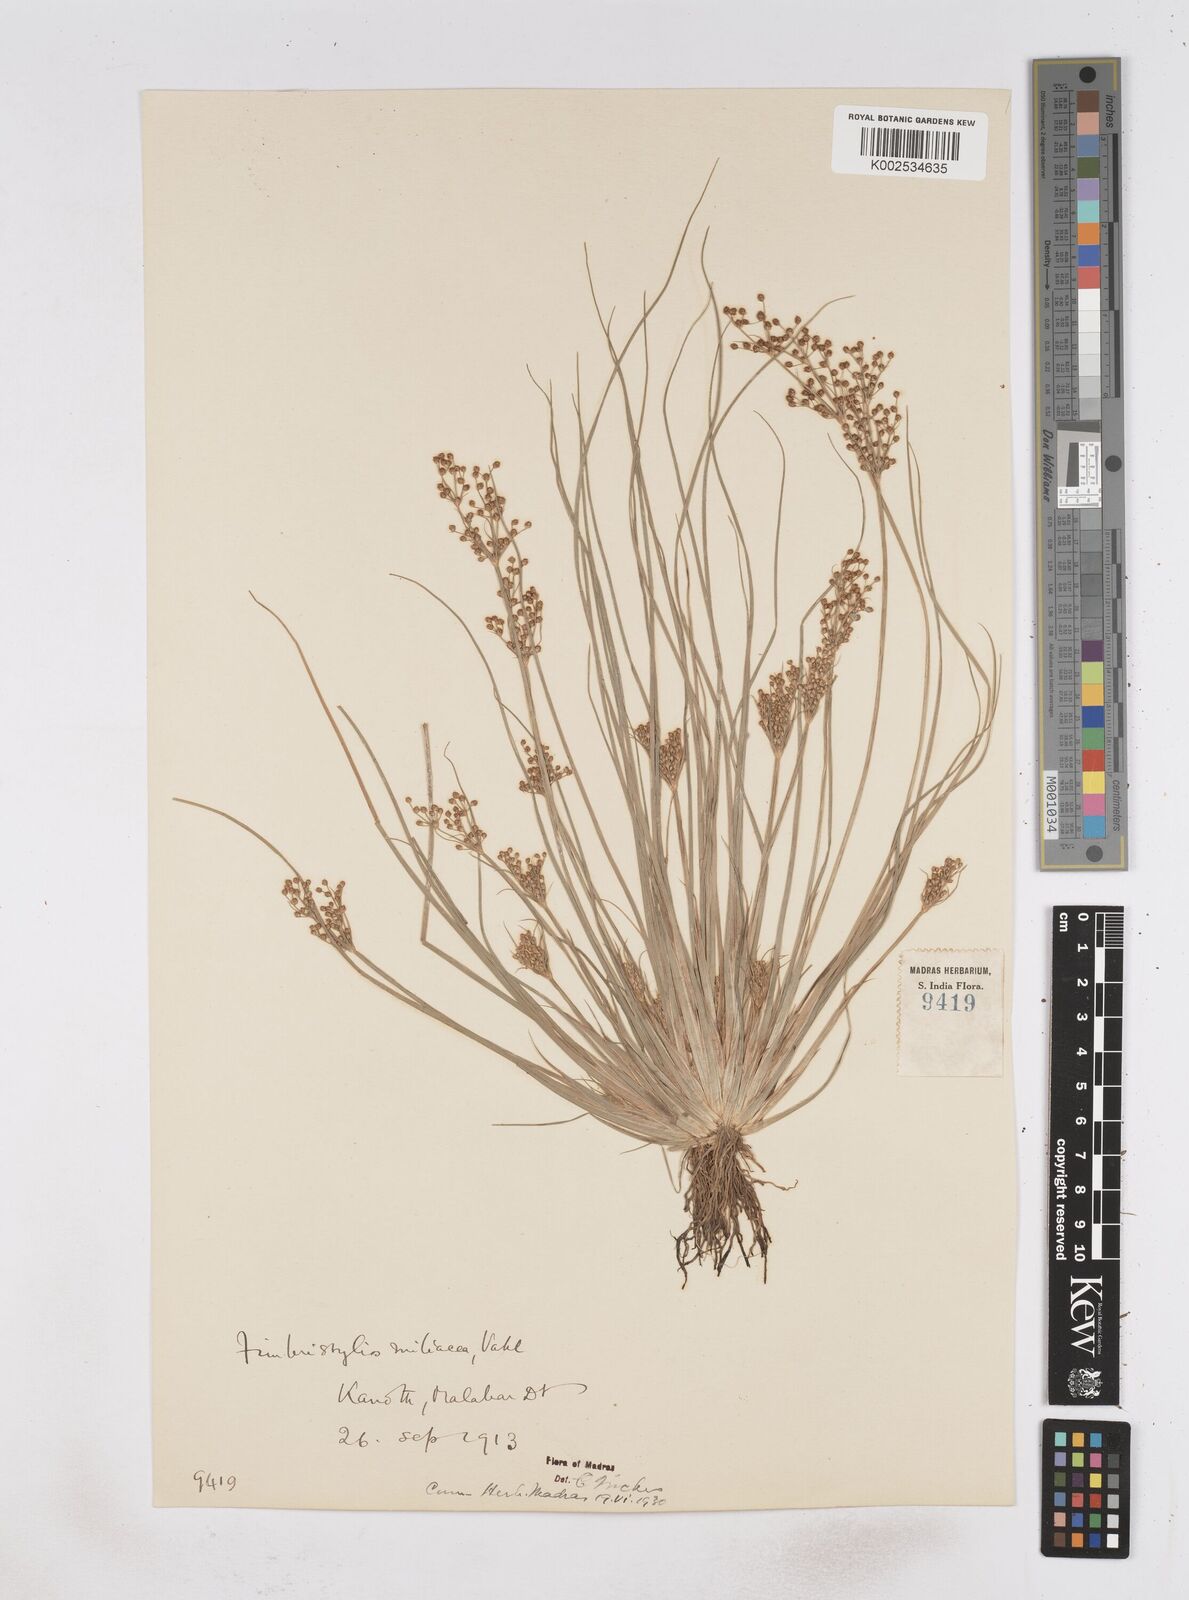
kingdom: Plantae
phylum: Tracheophyta
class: Liliopsida
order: Poales
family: Cyperaceae
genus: Fimbristylis
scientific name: Fimbristylis littoralis
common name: Fimbry
